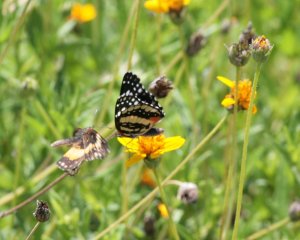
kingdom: Animalia
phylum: Arthropoda
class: Insecta
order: Lepidoptera
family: Nymphalidae
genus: Chlosyne
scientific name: Chlosyne lacinia
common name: Bordered Patch
